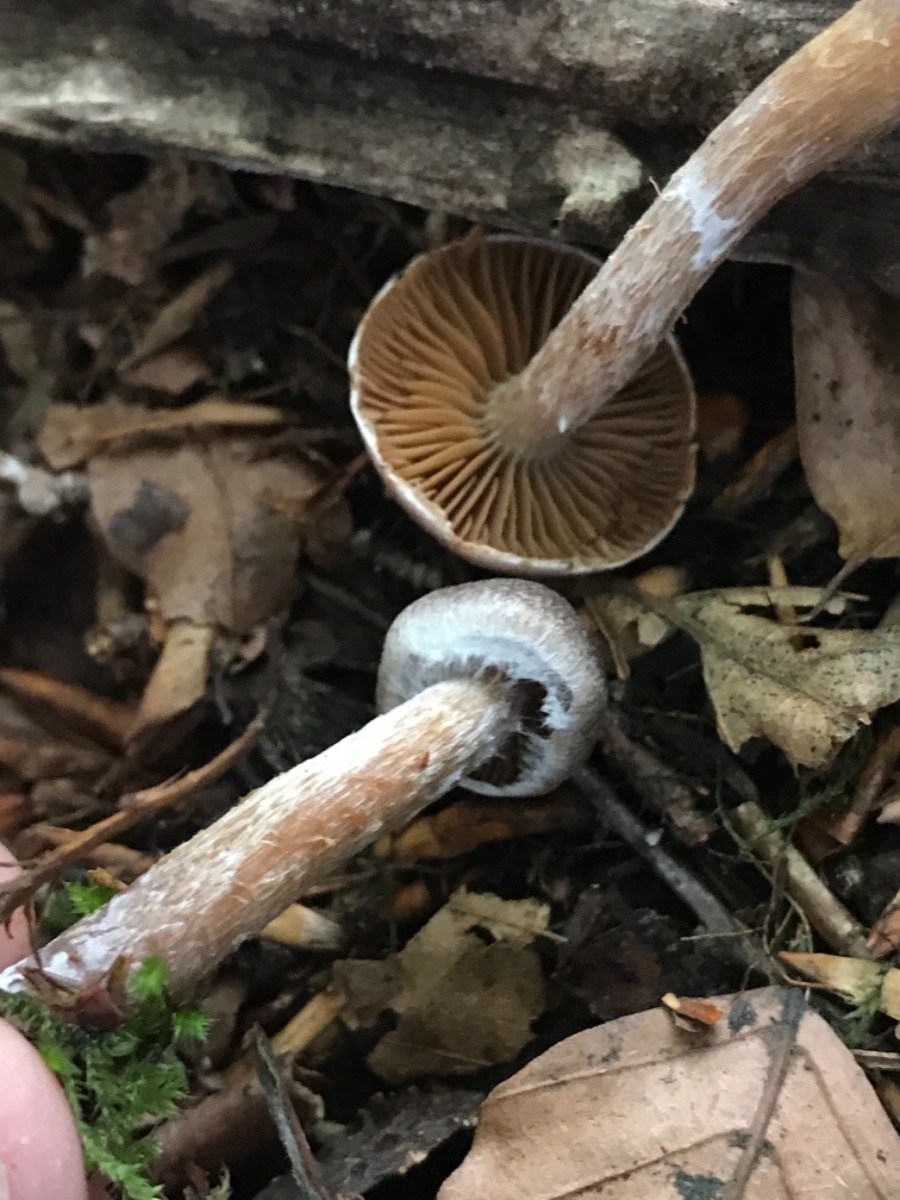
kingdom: Fungi
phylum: Basidiomycota
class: Agaricomycetes
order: Agaricales
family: Cortinariaceae
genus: Cortinarius
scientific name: Cortinarius
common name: pelargonie-slørhat
